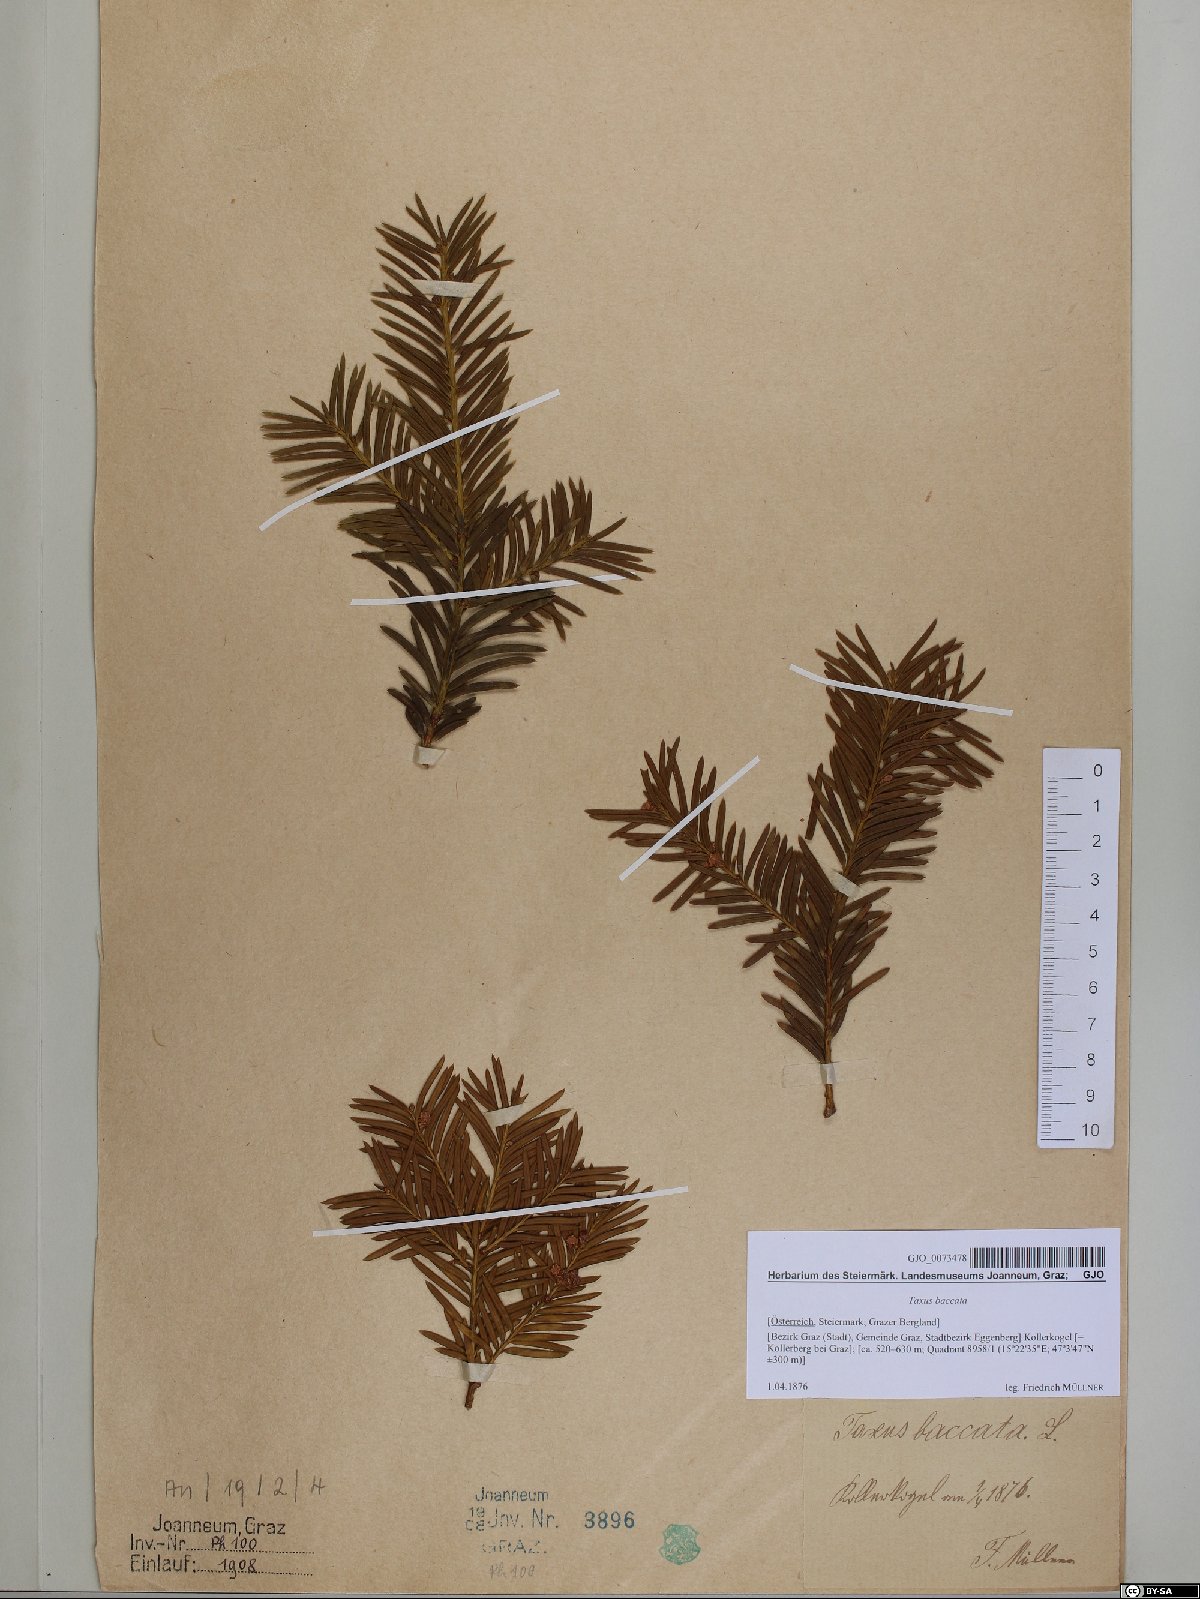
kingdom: Plantae
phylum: Tracheophyta
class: Pinopsida
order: Pinales
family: Taxaceae
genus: Taxus
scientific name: Taxus baccata
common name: Yew
